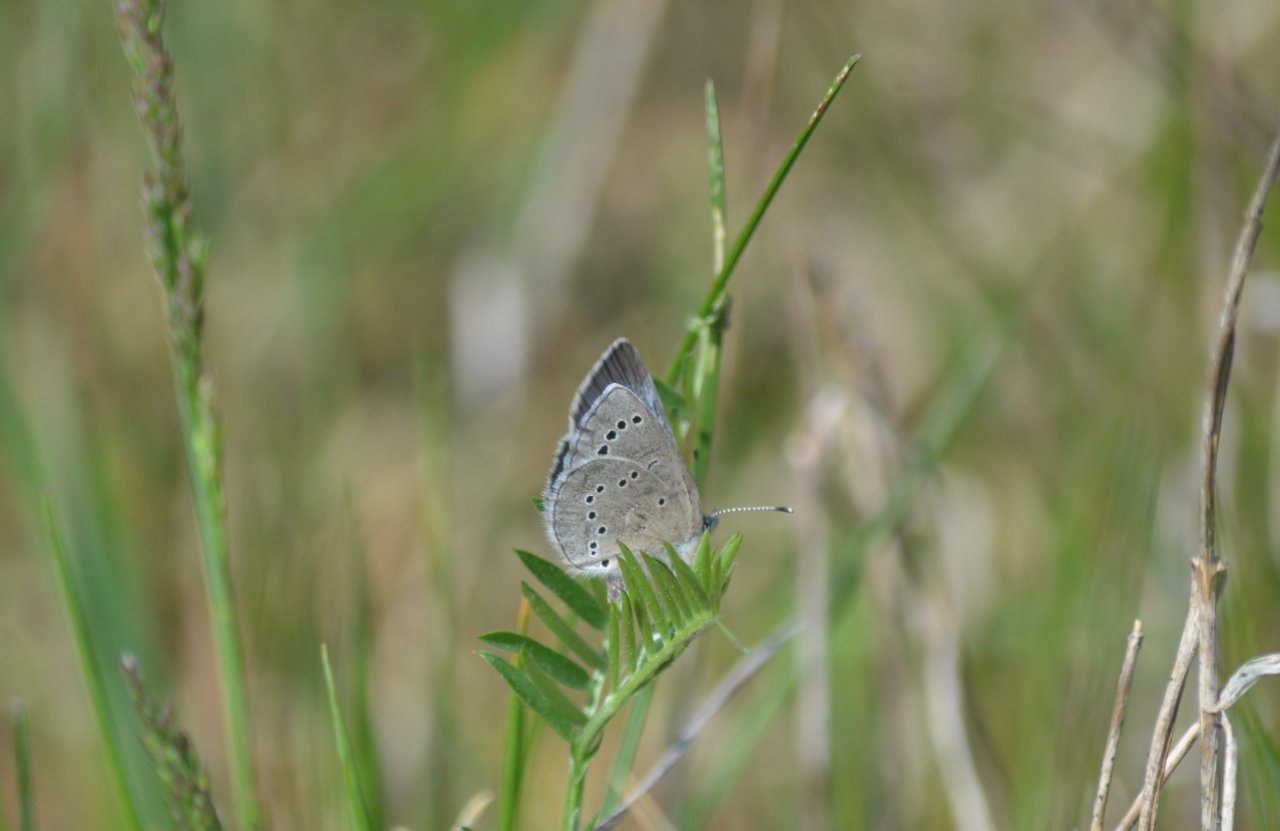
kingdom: Animalia
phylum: Arthropoda
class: Insecta
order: Lepidoptera
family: Lycaenidae
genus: Glaucopsyche
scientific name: Glaucopsyche lygdamus
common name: Silvery Blue
